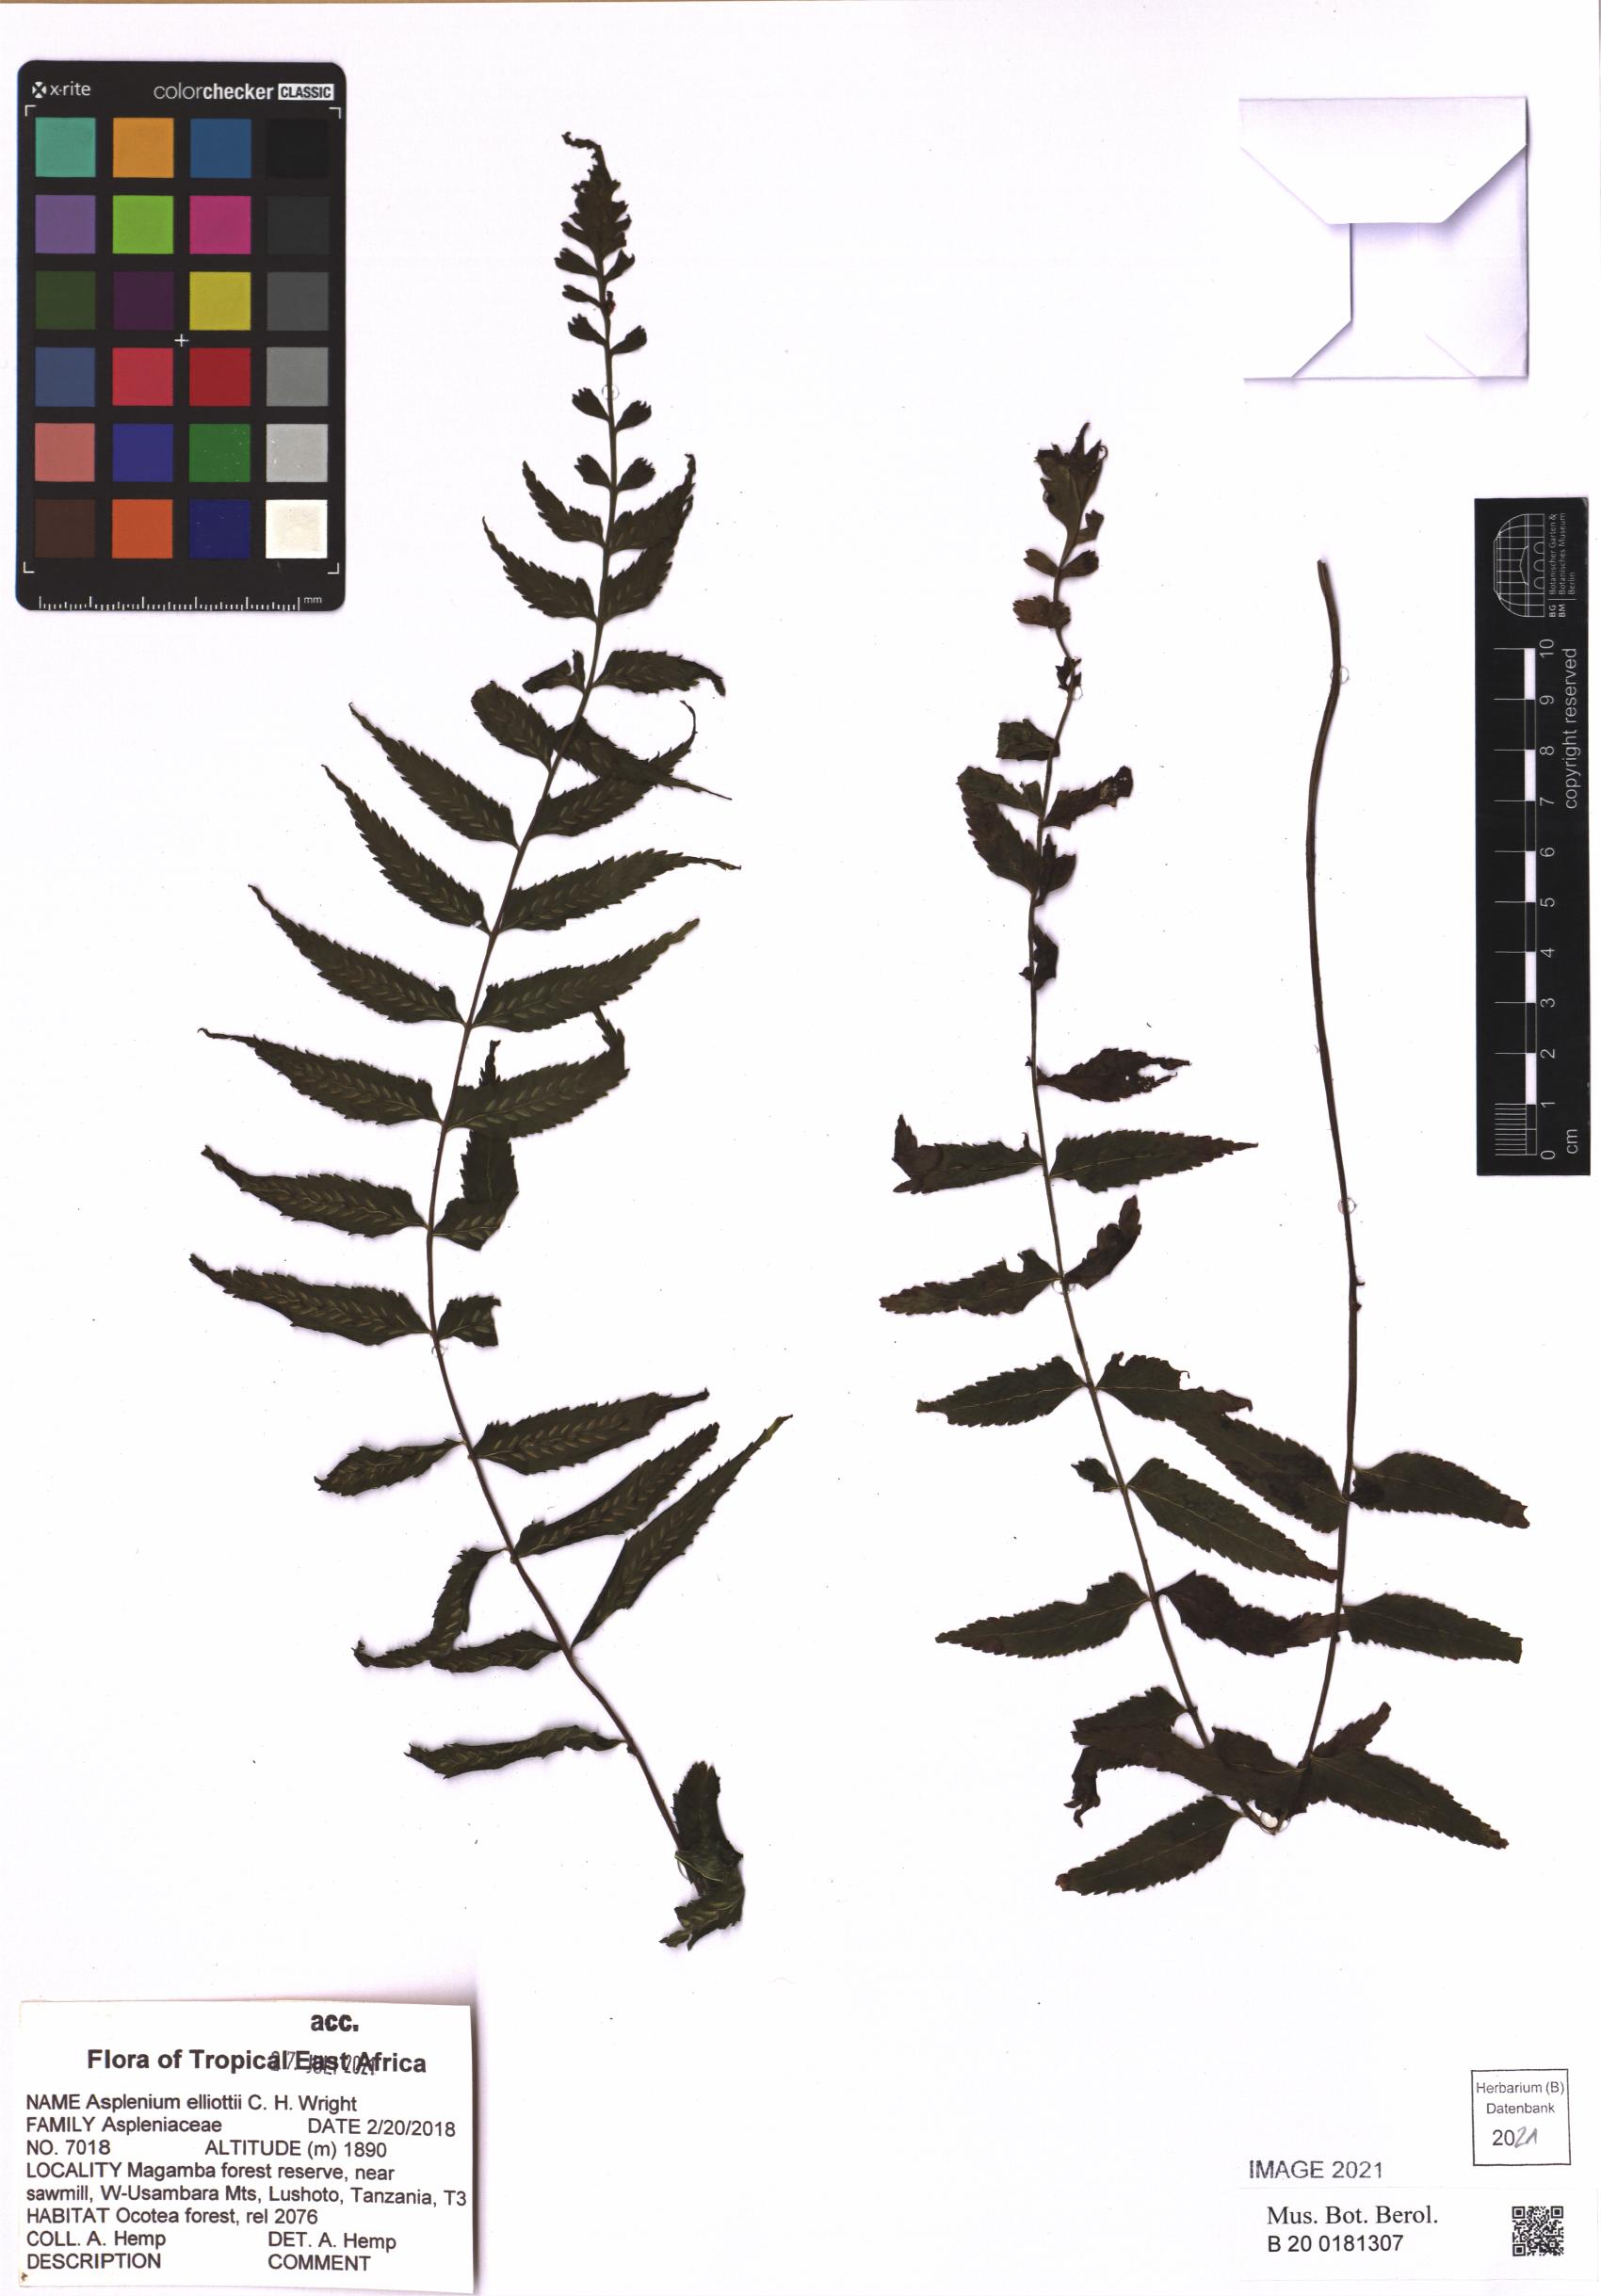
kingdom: Plantae
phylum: Tracheophyta
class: Polypodiopsida
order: Polypodiales
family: Aspleniaceae
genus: Asplenium
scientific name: Asplenium elliottii
